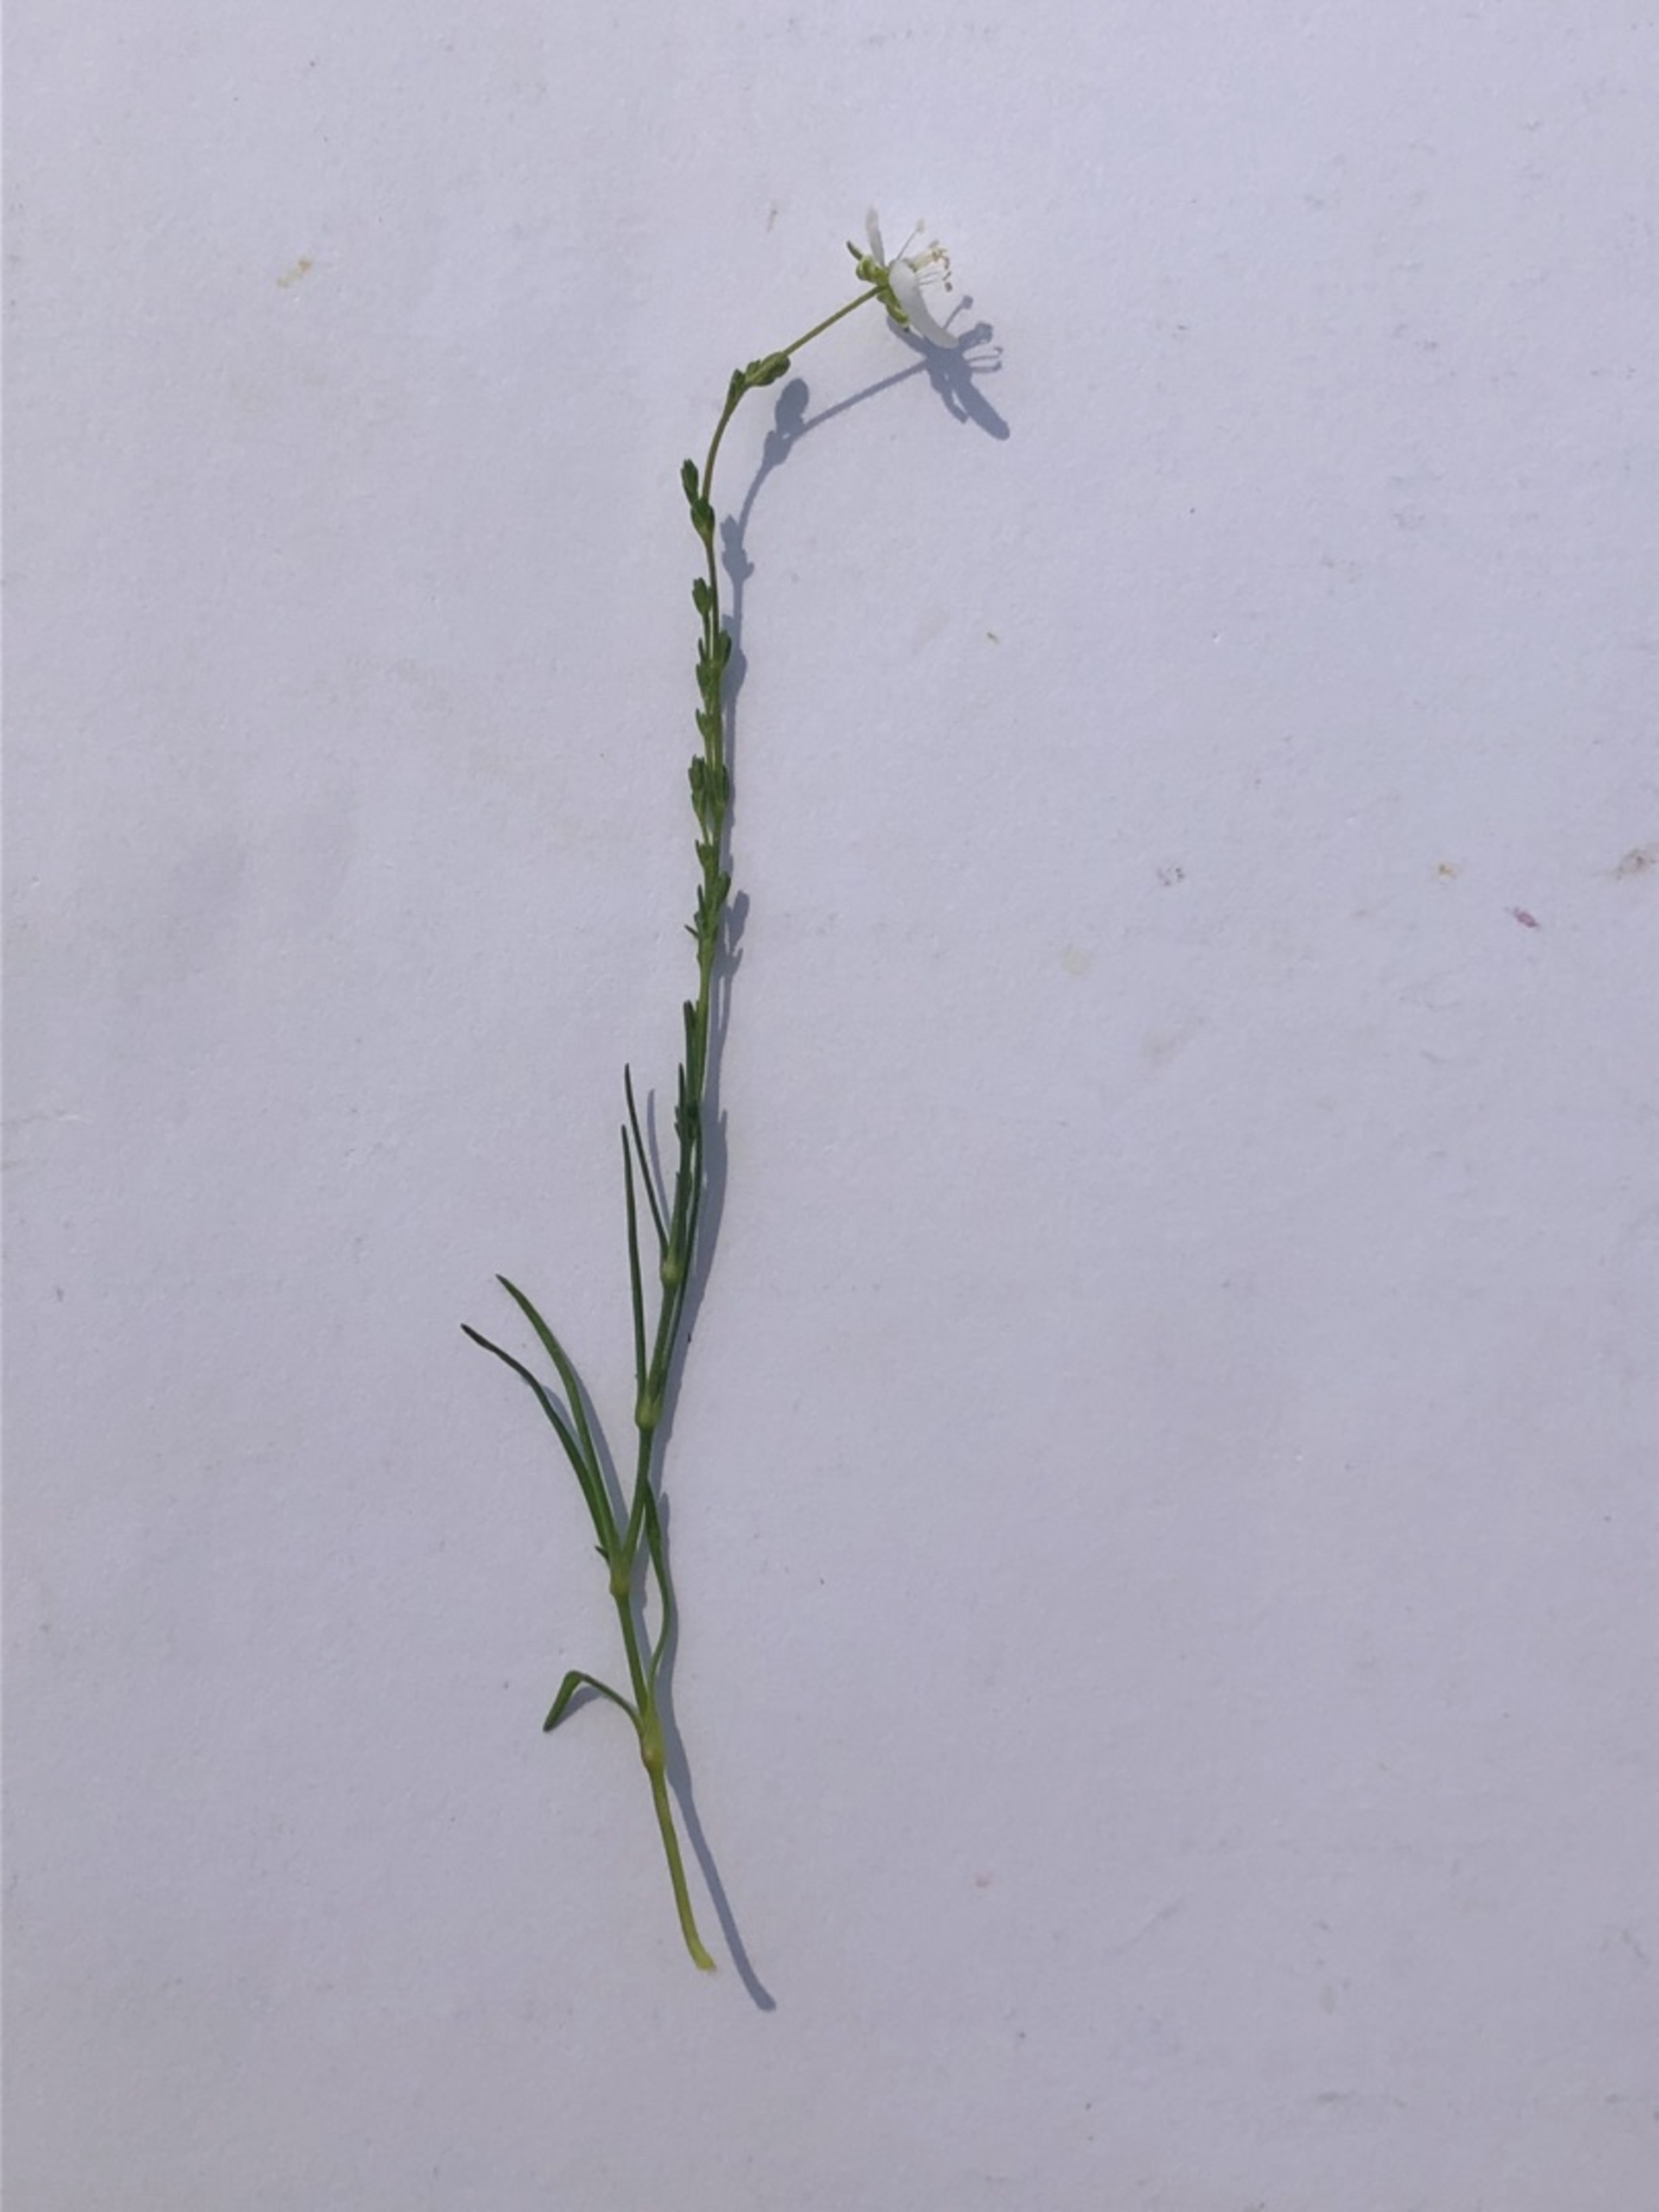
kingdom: Plantae
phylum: Tracheophyta
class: Magnoliopsida
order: Caryophyllales
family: Caryophyllaceae
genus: Sagina
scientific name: Sagina nodosa
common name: Knude-firling
